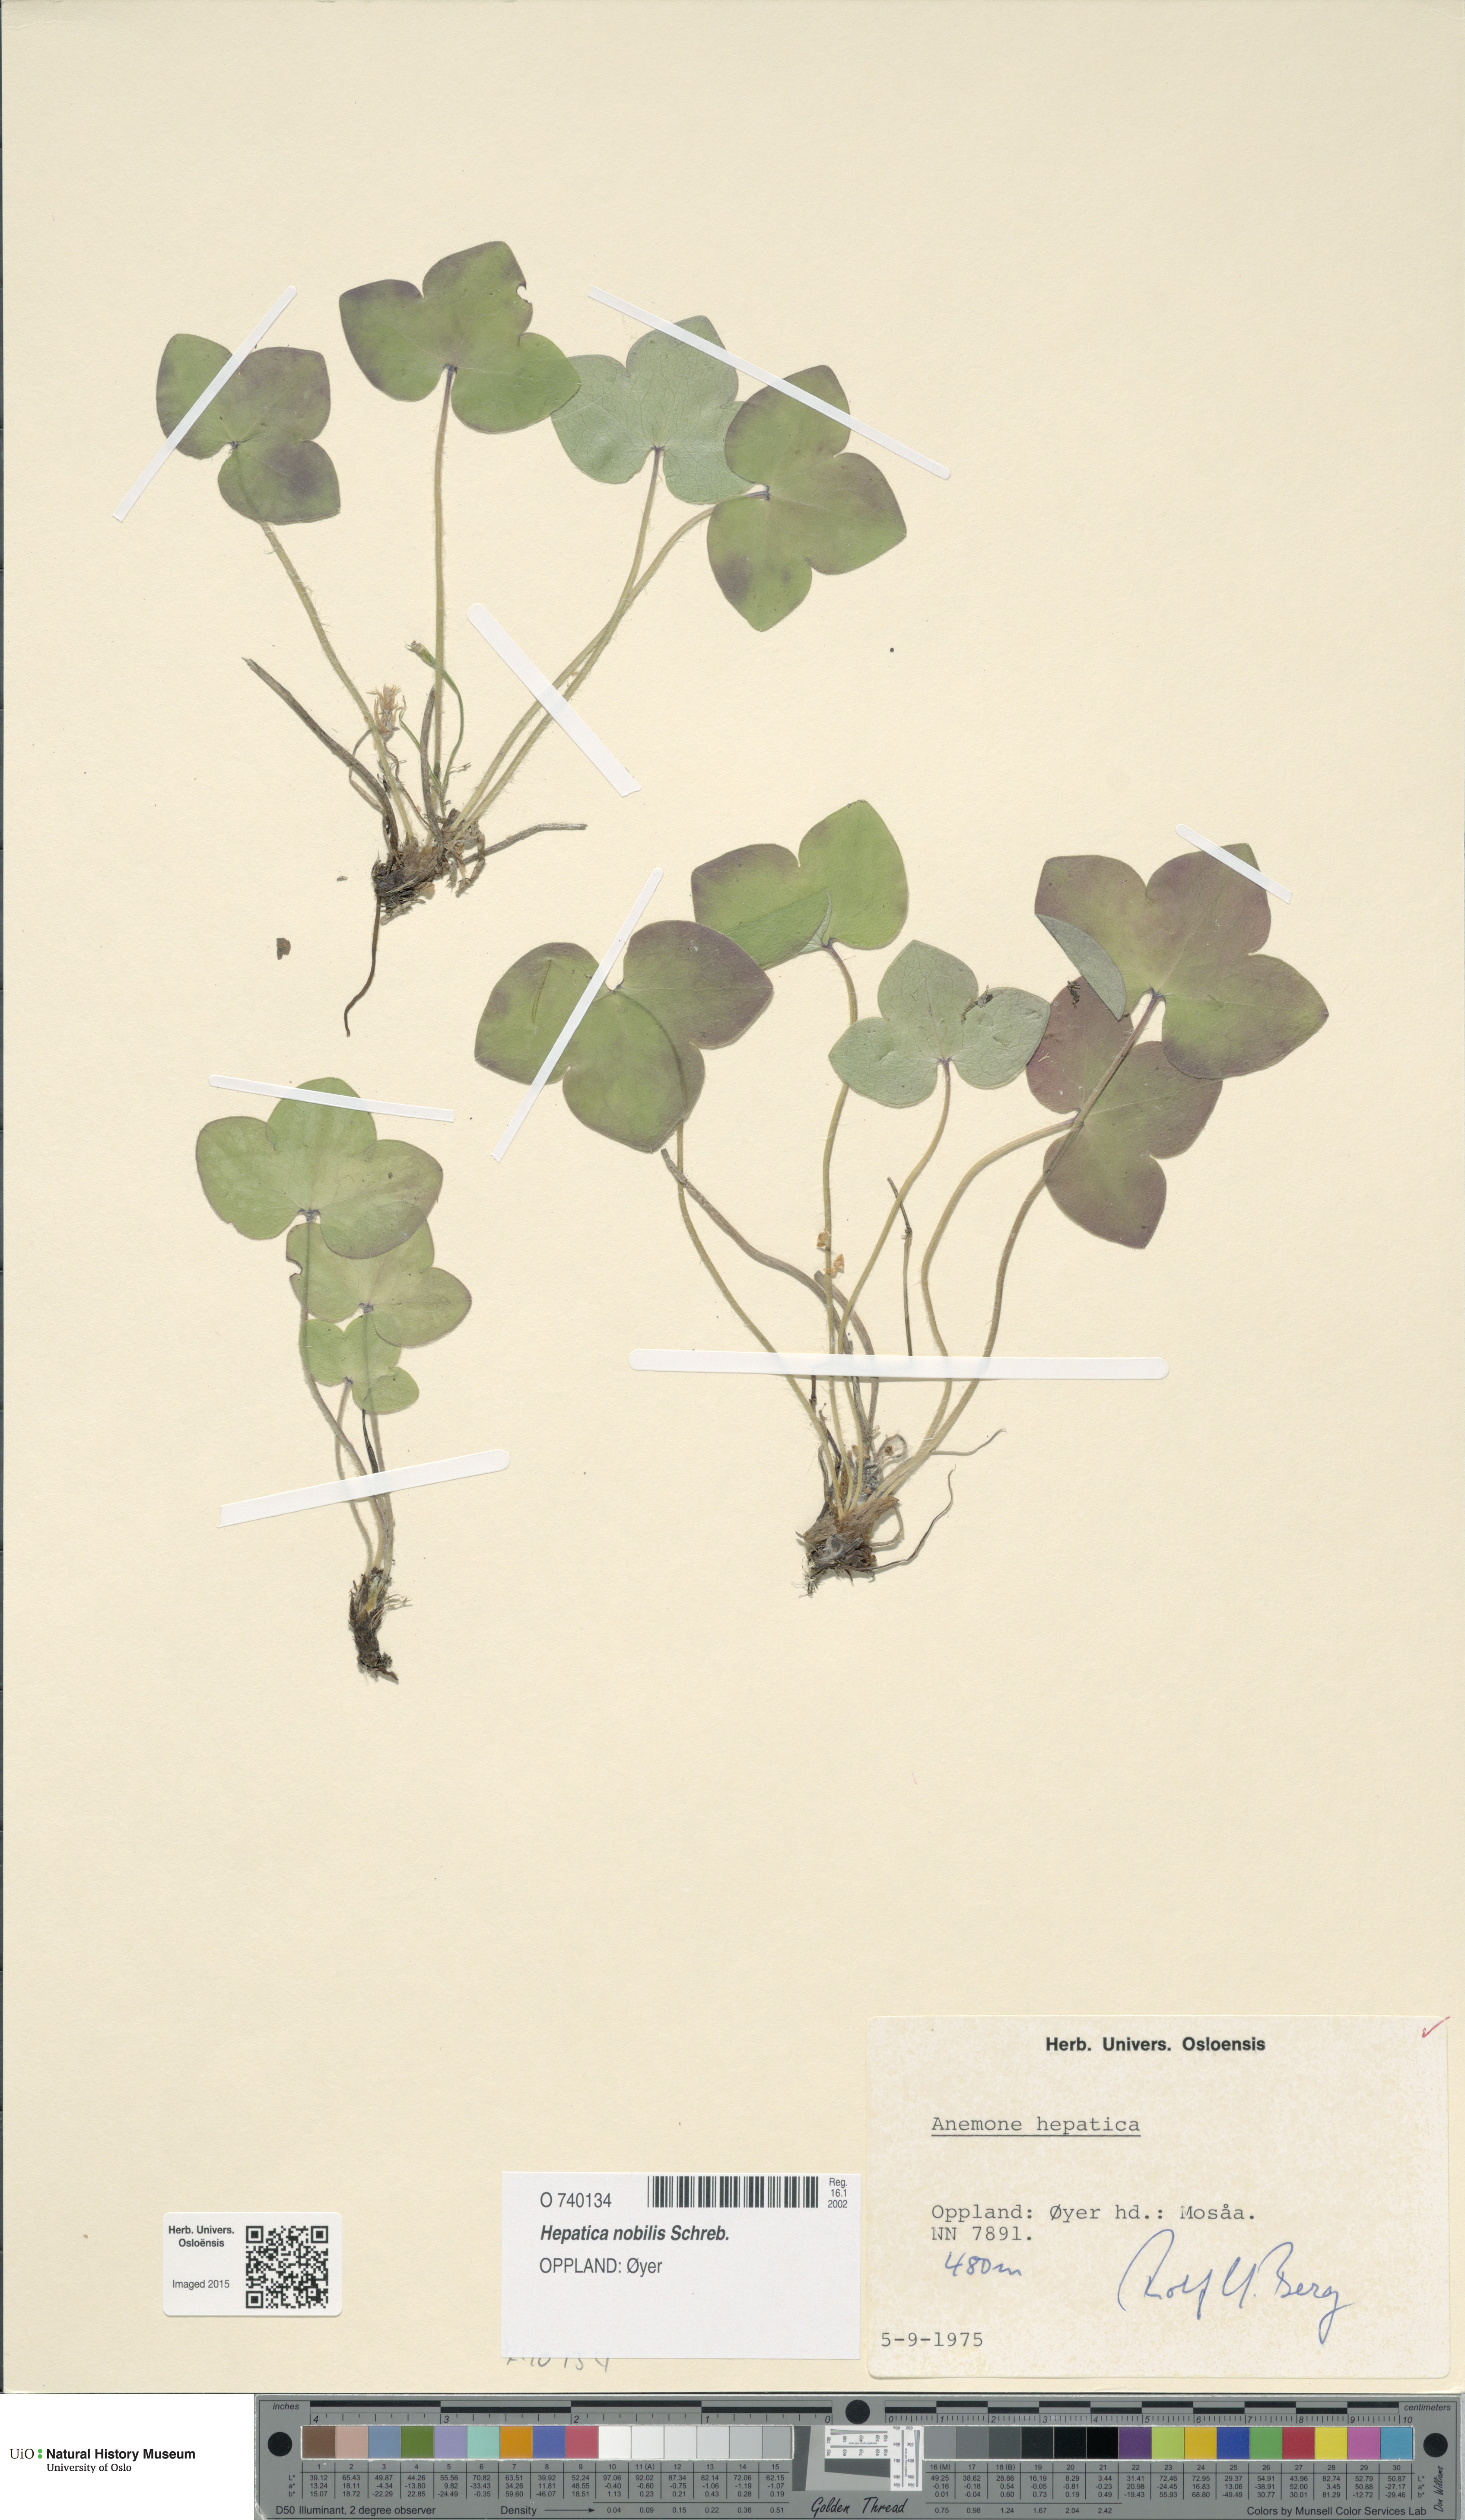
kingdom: Plantae
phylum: Tracheophyta
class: Magnoliopsida
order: Ranunculales
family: Ranunculaceae
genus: Hepatica
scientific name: Hepatica nobilis
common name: Liverleaf
